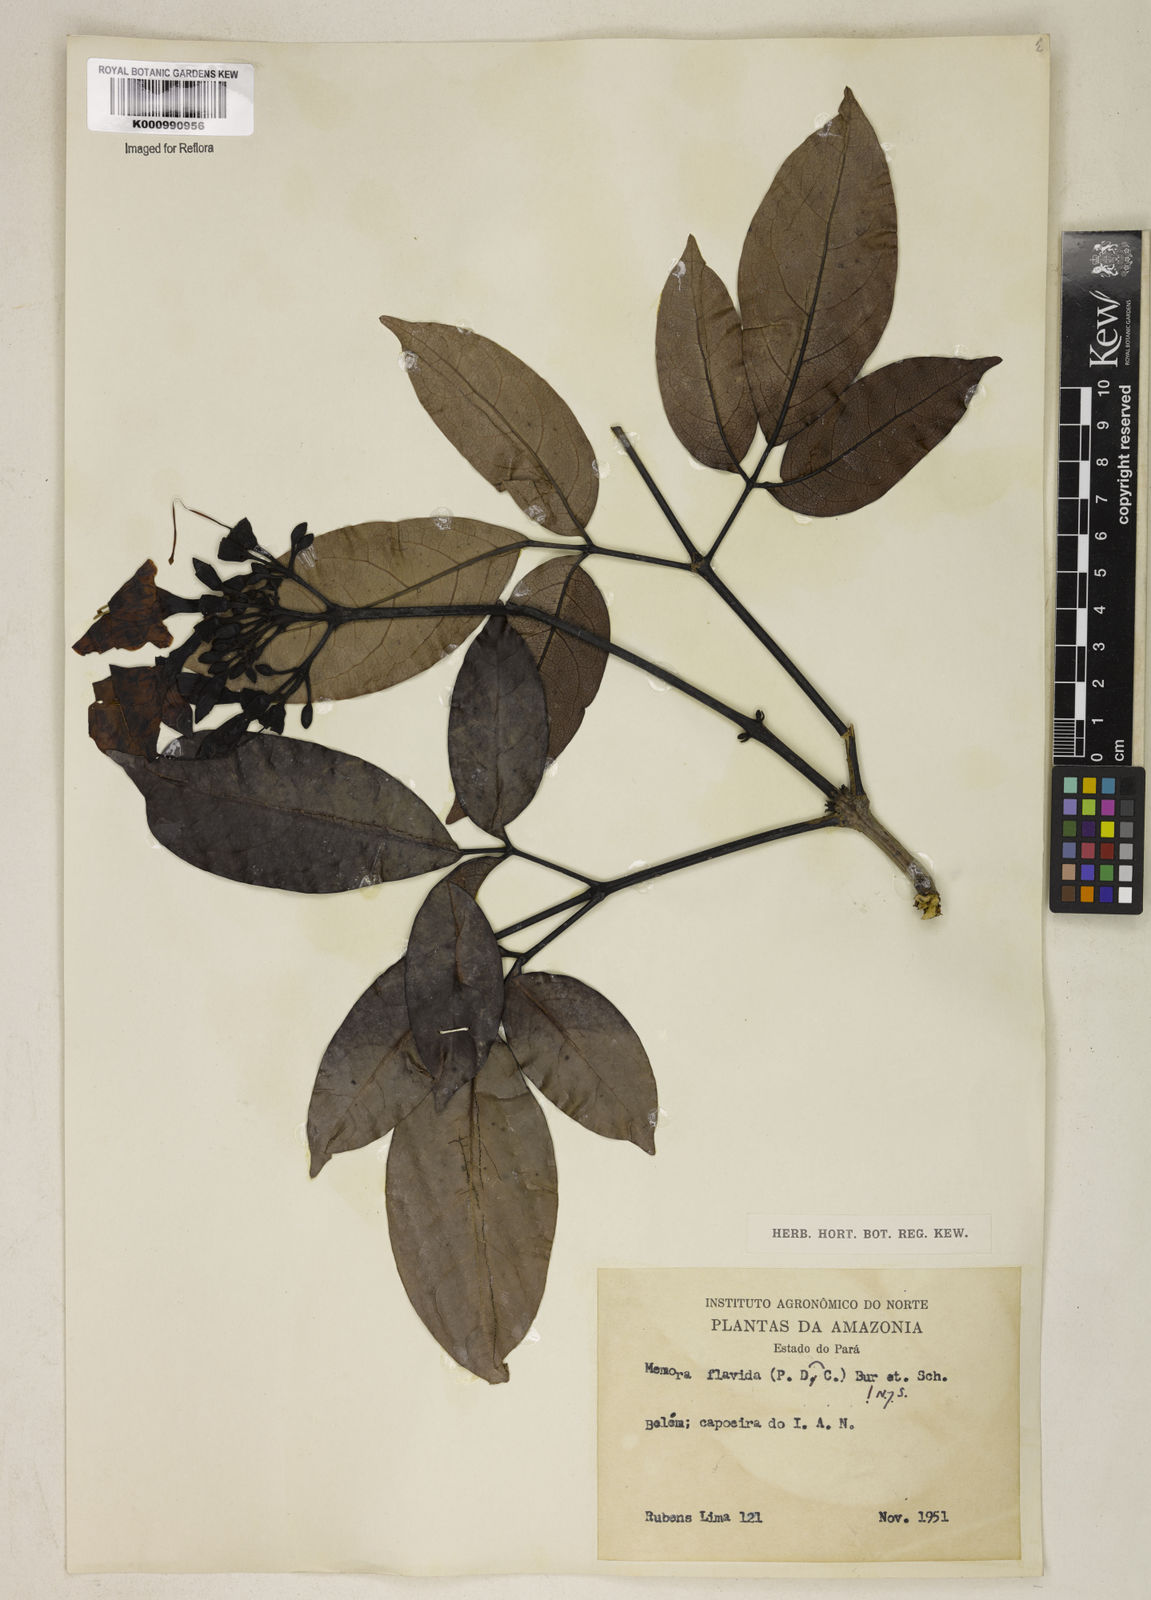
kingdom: Plantae
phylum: Tracheophyta
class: Magnoliopsida
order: Lamiales
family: Bignoniaceae
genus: Adenocalymma
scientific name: Adenocalymma neoflavidum
